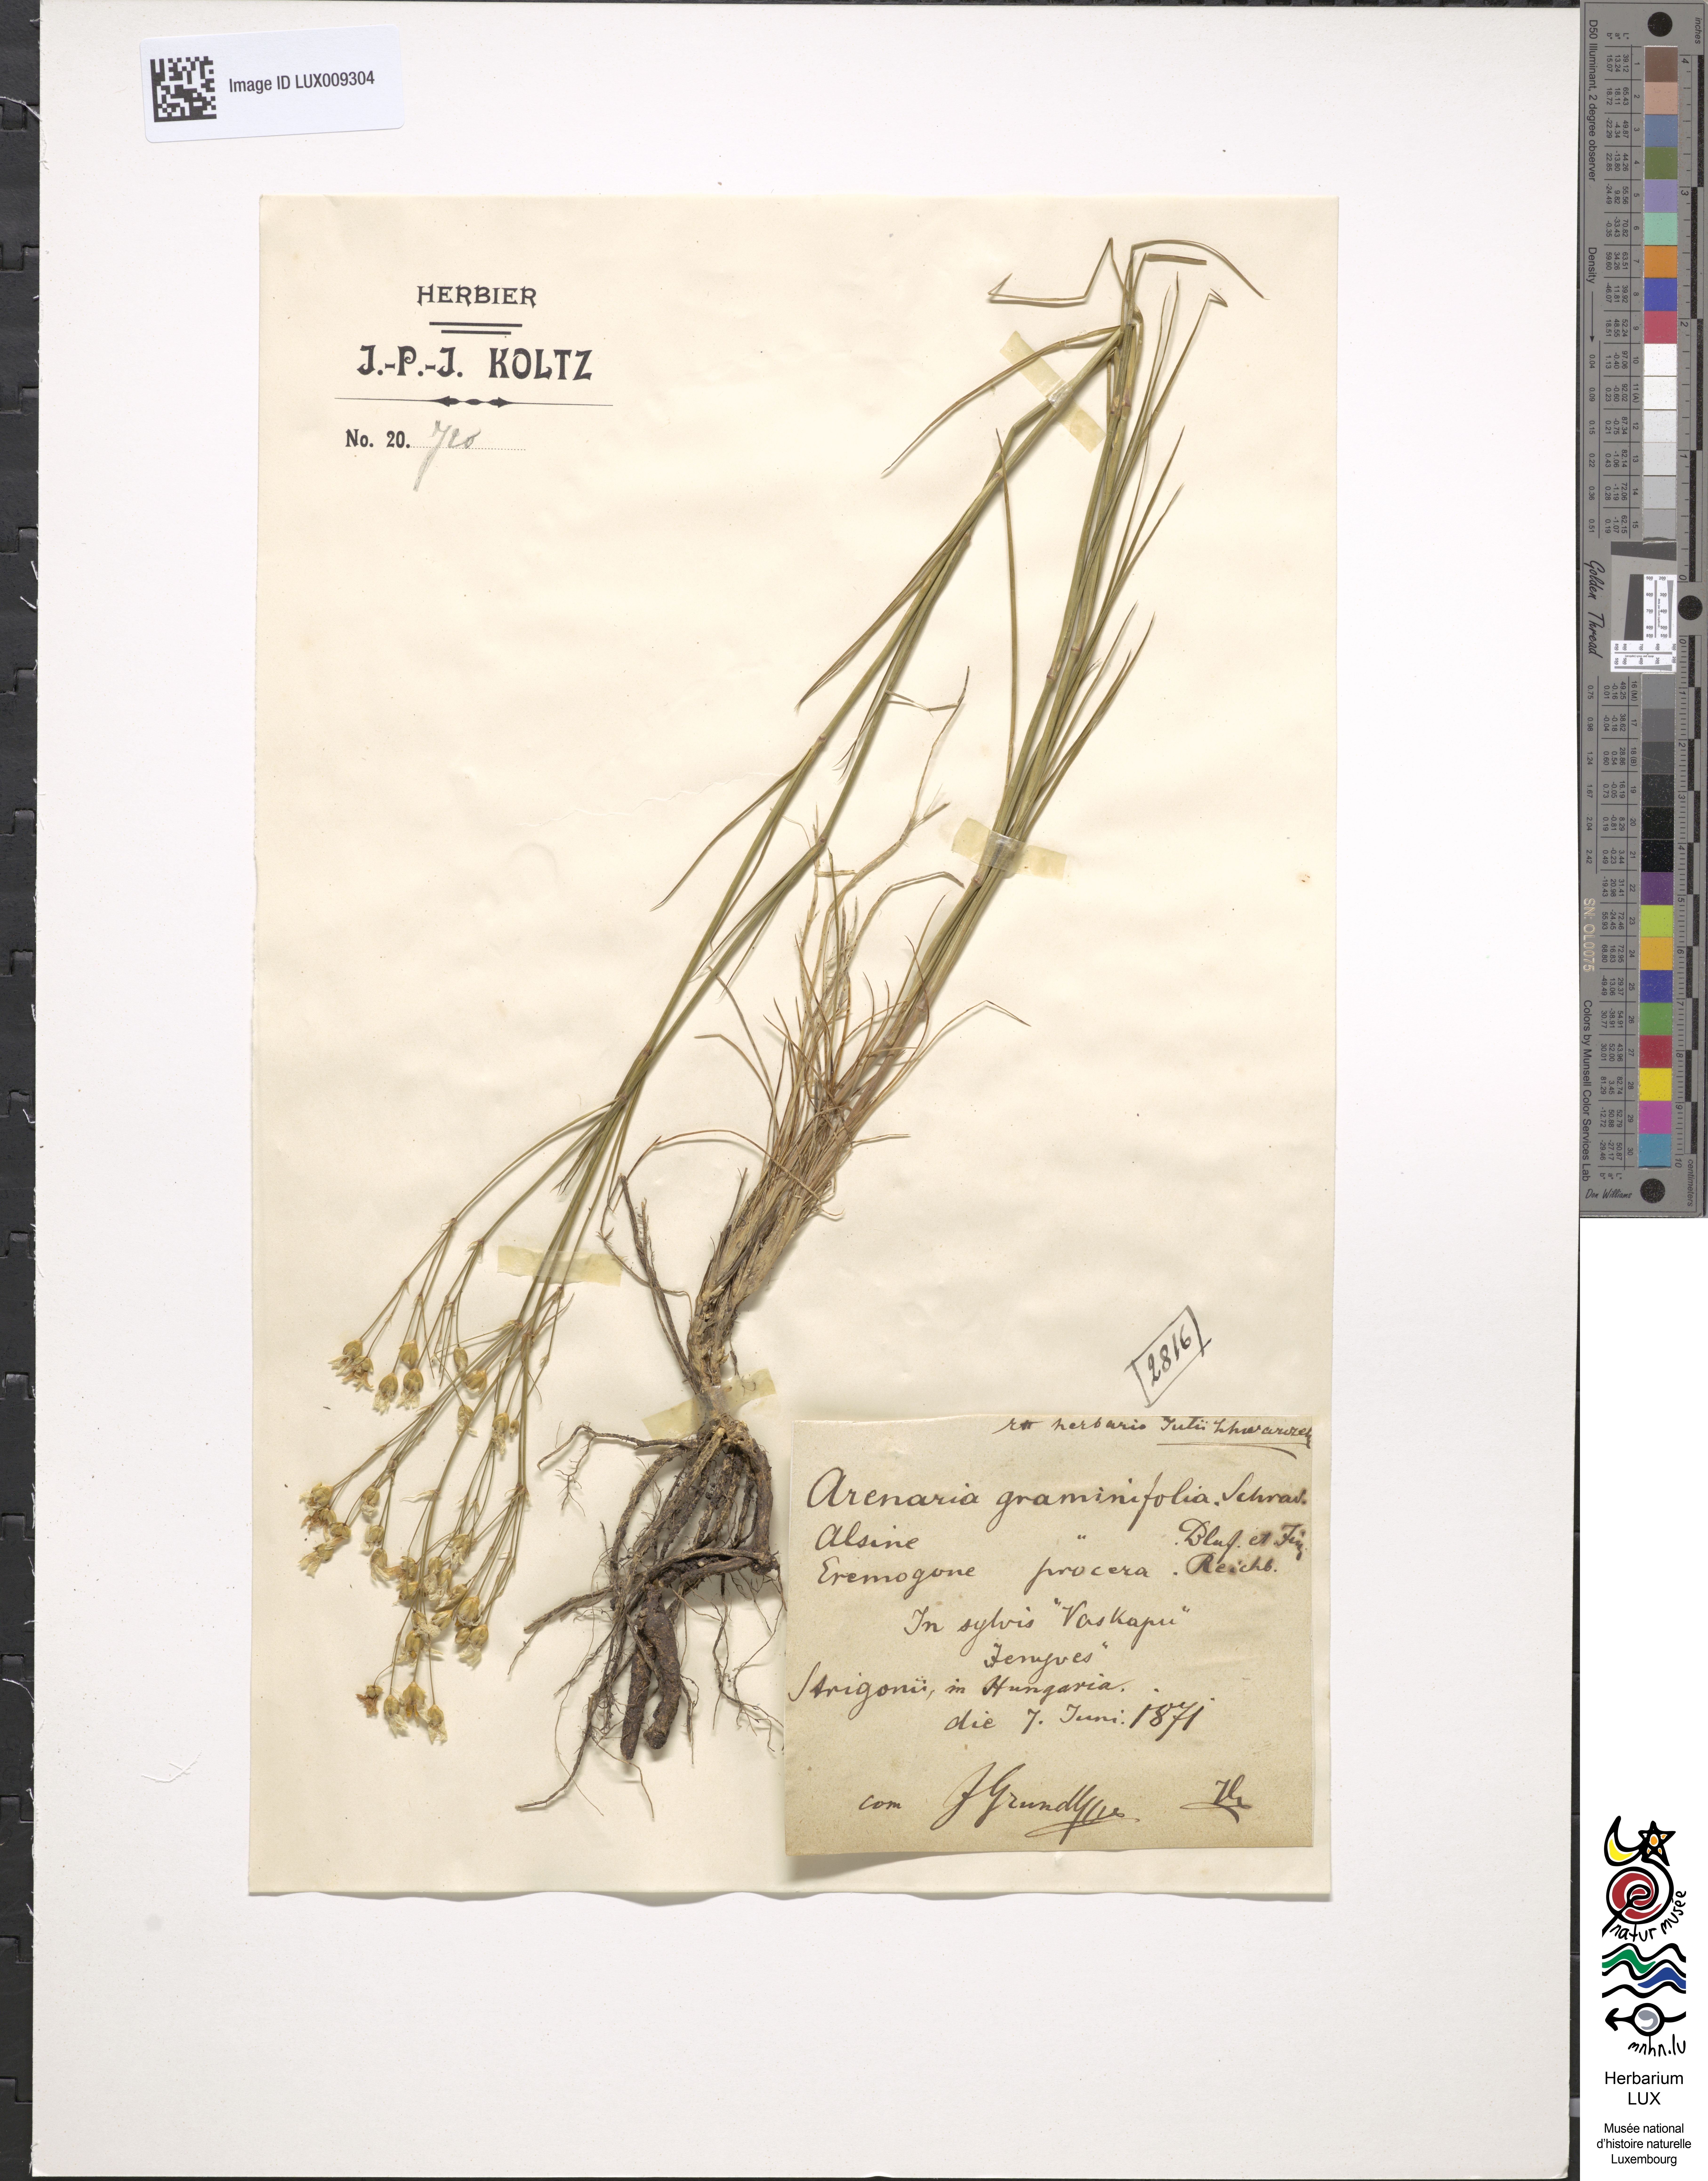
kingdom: Plantae
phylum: Tracheophyta
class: Magnoliopsida
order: Caryophyllales
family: Caryophyllaceae
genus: Eremogone
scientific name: Eremogone saxatilis
